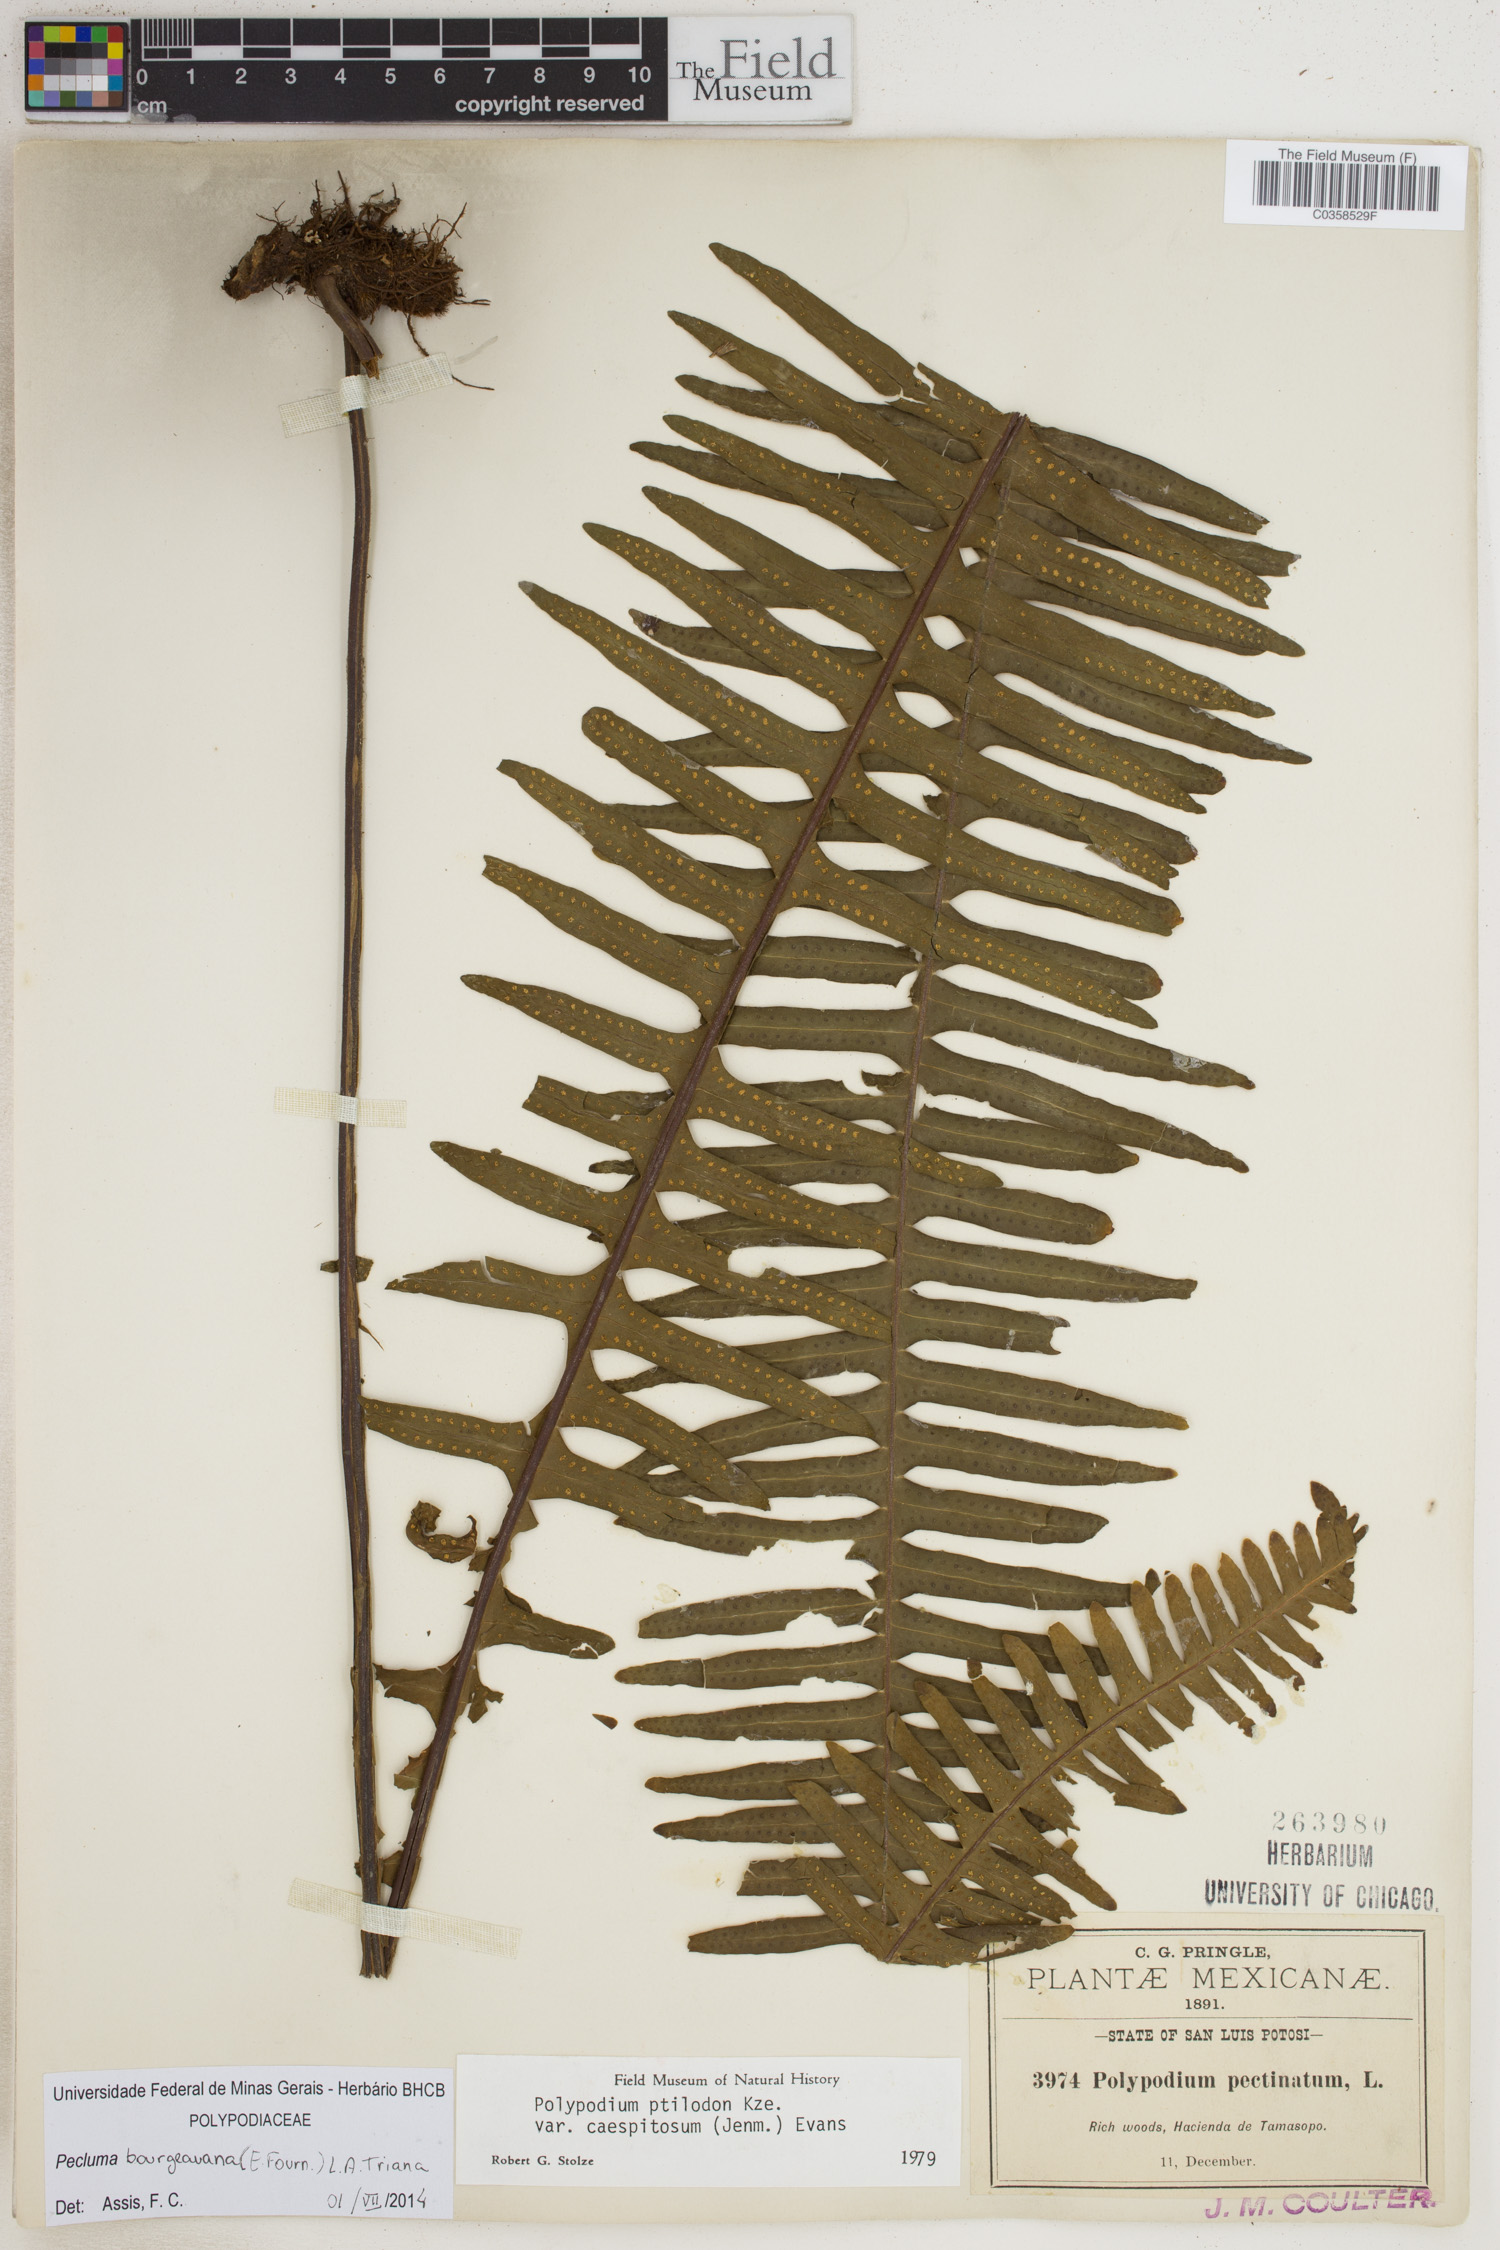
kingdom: Plantae
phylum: Tracheophyta
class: Polypodiopsida
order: Polypodiales
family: Polypodiaceae
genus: Pecluma
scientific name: Pecluma bourgeauana
